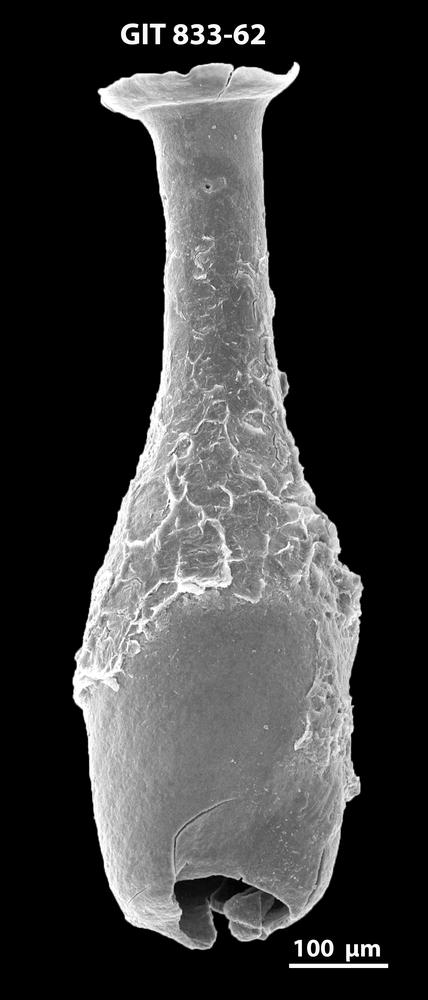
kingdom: Animalia
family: Lagenochitinidae
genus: Lagenochitina
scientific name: Lagenochitina megaesthonica
